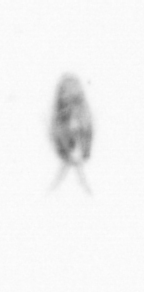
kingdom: Animalia
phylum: Arthropoda
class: Copepoda
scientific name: Copepoda
